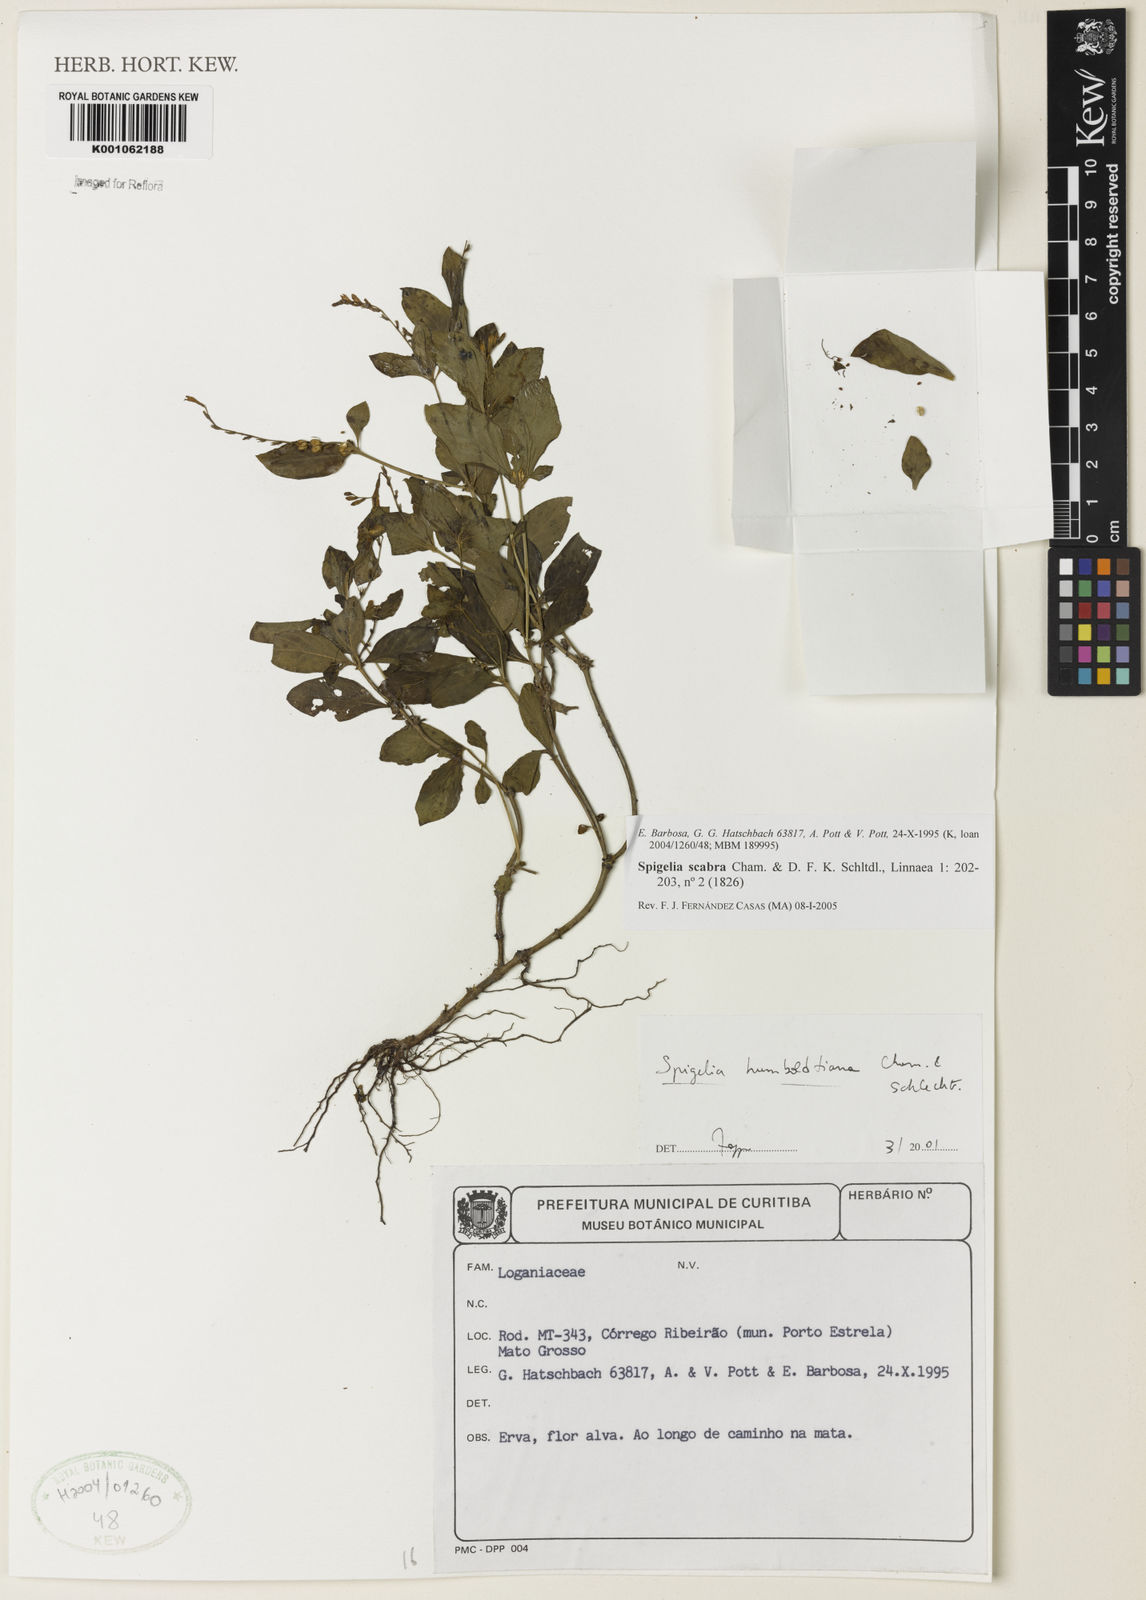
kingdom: Plantae
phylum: Tracheophyta
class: Magnoliopsida
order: Gentianales
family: Loganiaceae
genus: Spigelia
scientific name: Spigelia humboldtiana
